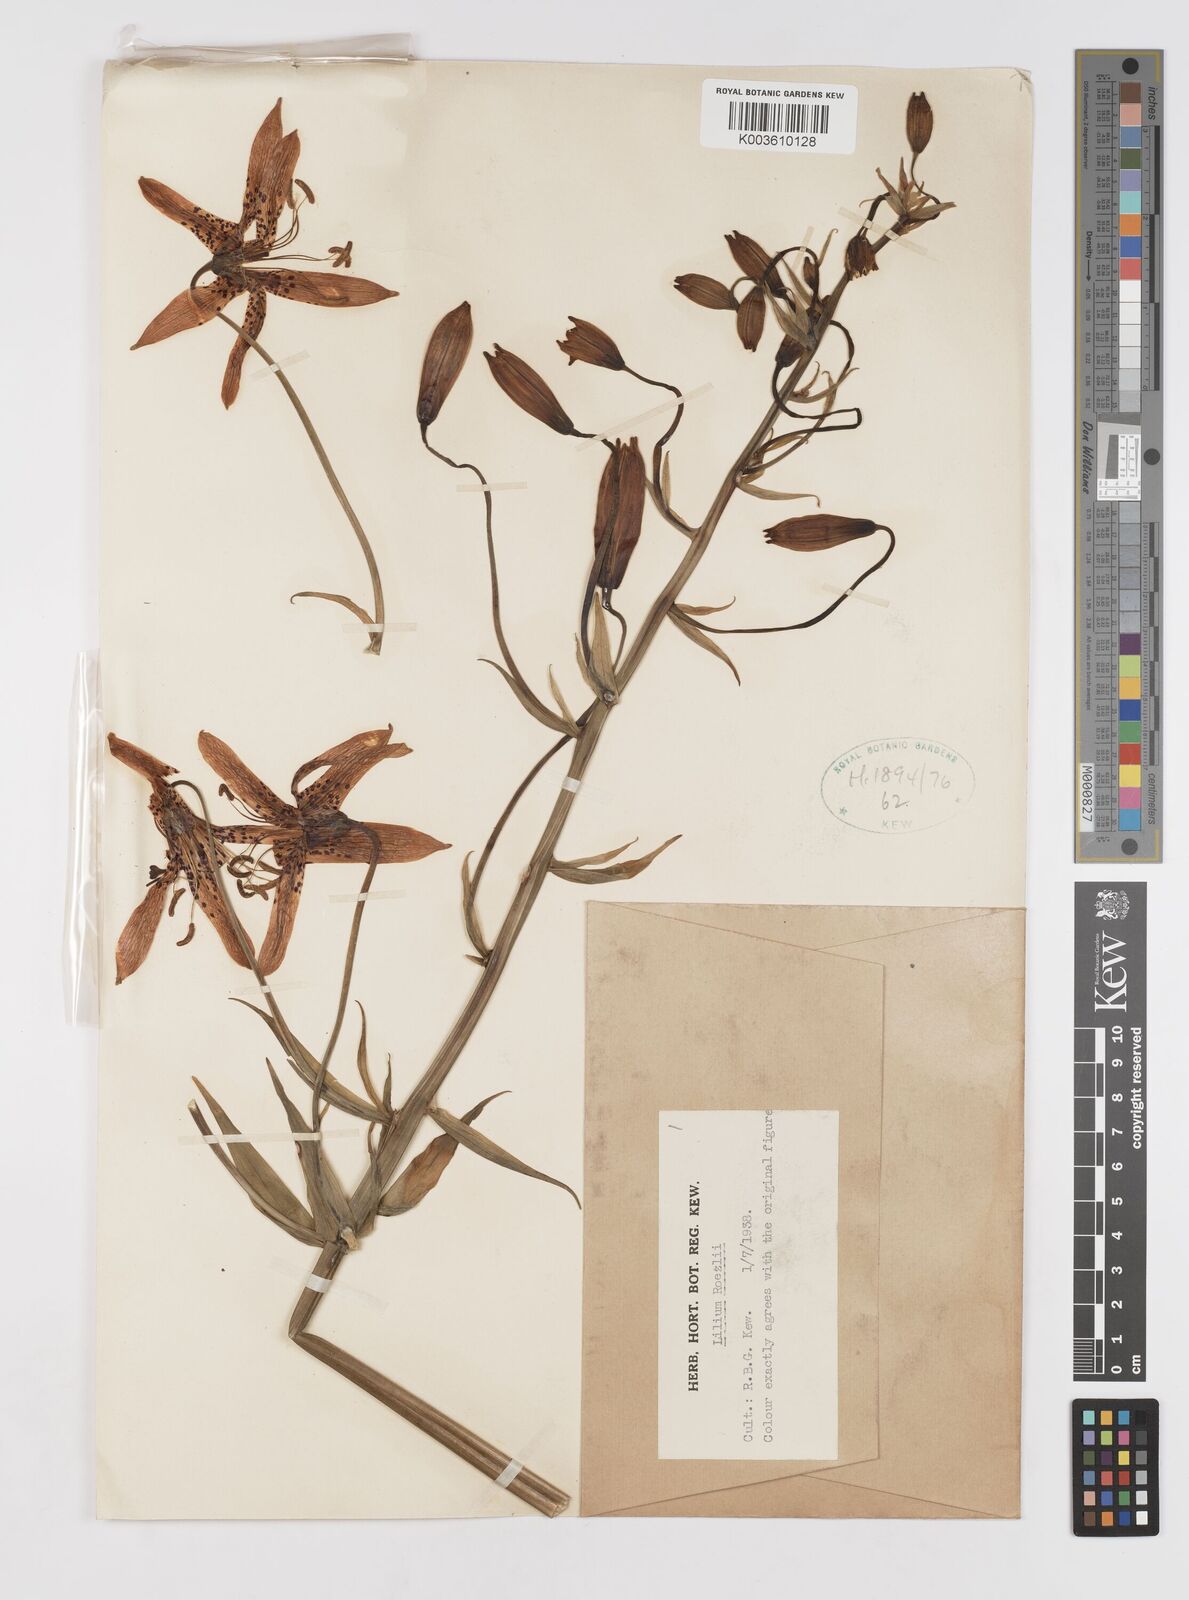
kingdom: Plantae
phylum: Tracheophyta
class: Liliopsida
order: Liliales
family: Liliaceae
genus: Lilium
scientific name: Lilium pardalinum
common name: Panther lily
